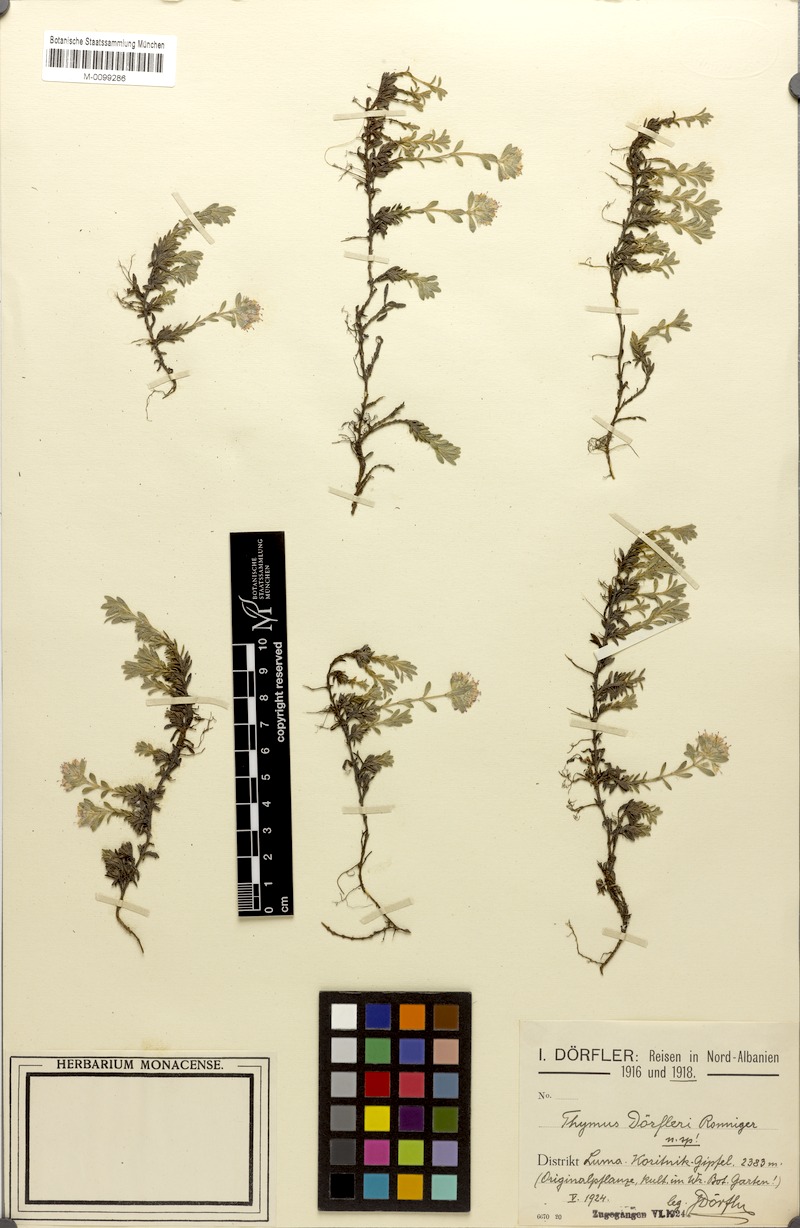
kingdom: Plantae
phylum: Tracheophyta
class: Magnoliopsida
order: Lamiales
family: Lamiaceae
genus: Thymus
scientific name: Thymus doerfleri
